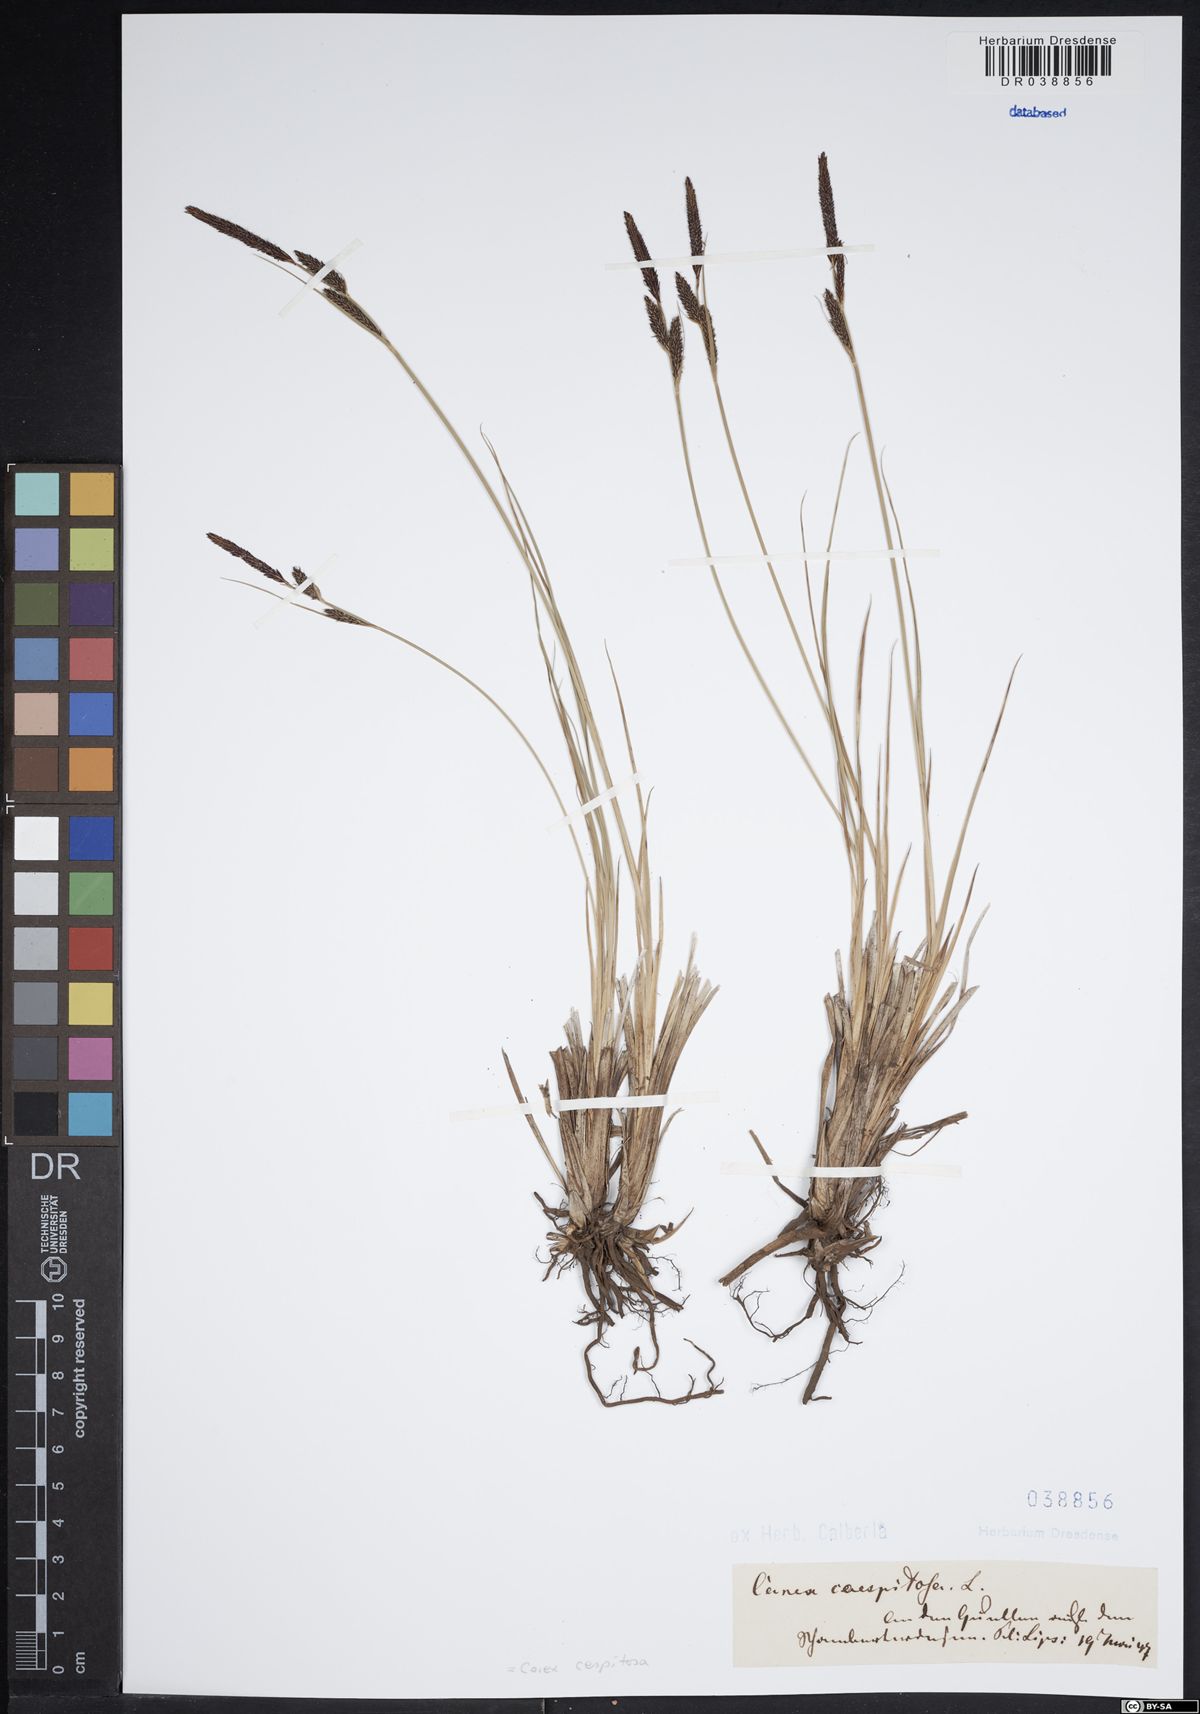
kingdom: Plantae
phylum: Tracheophyta
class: Liliopsida
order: Poales
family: Cyperaceae
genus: Carex
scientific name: Carex cespitosa
